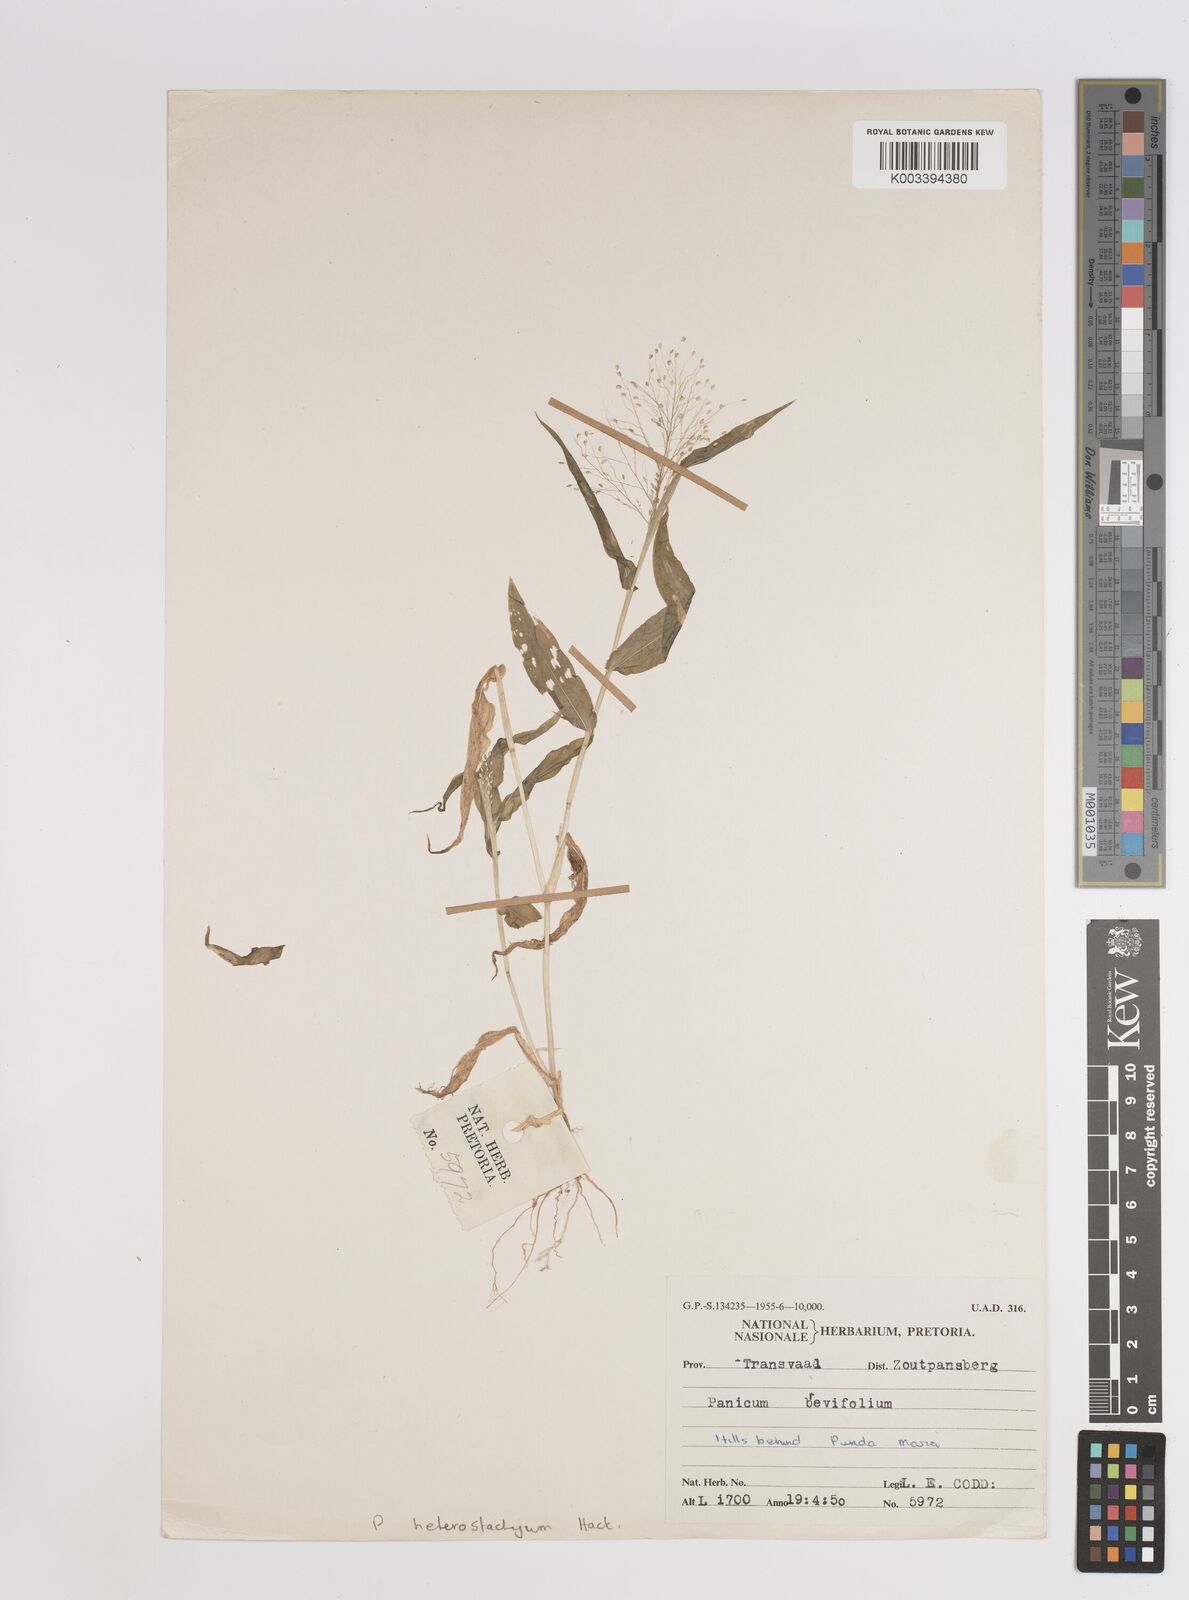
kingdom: Plantae
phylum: Tracheophyta
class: Liliopsida
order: Poales
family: Poaceae
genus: Panicum
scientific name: Panicum jahnii
